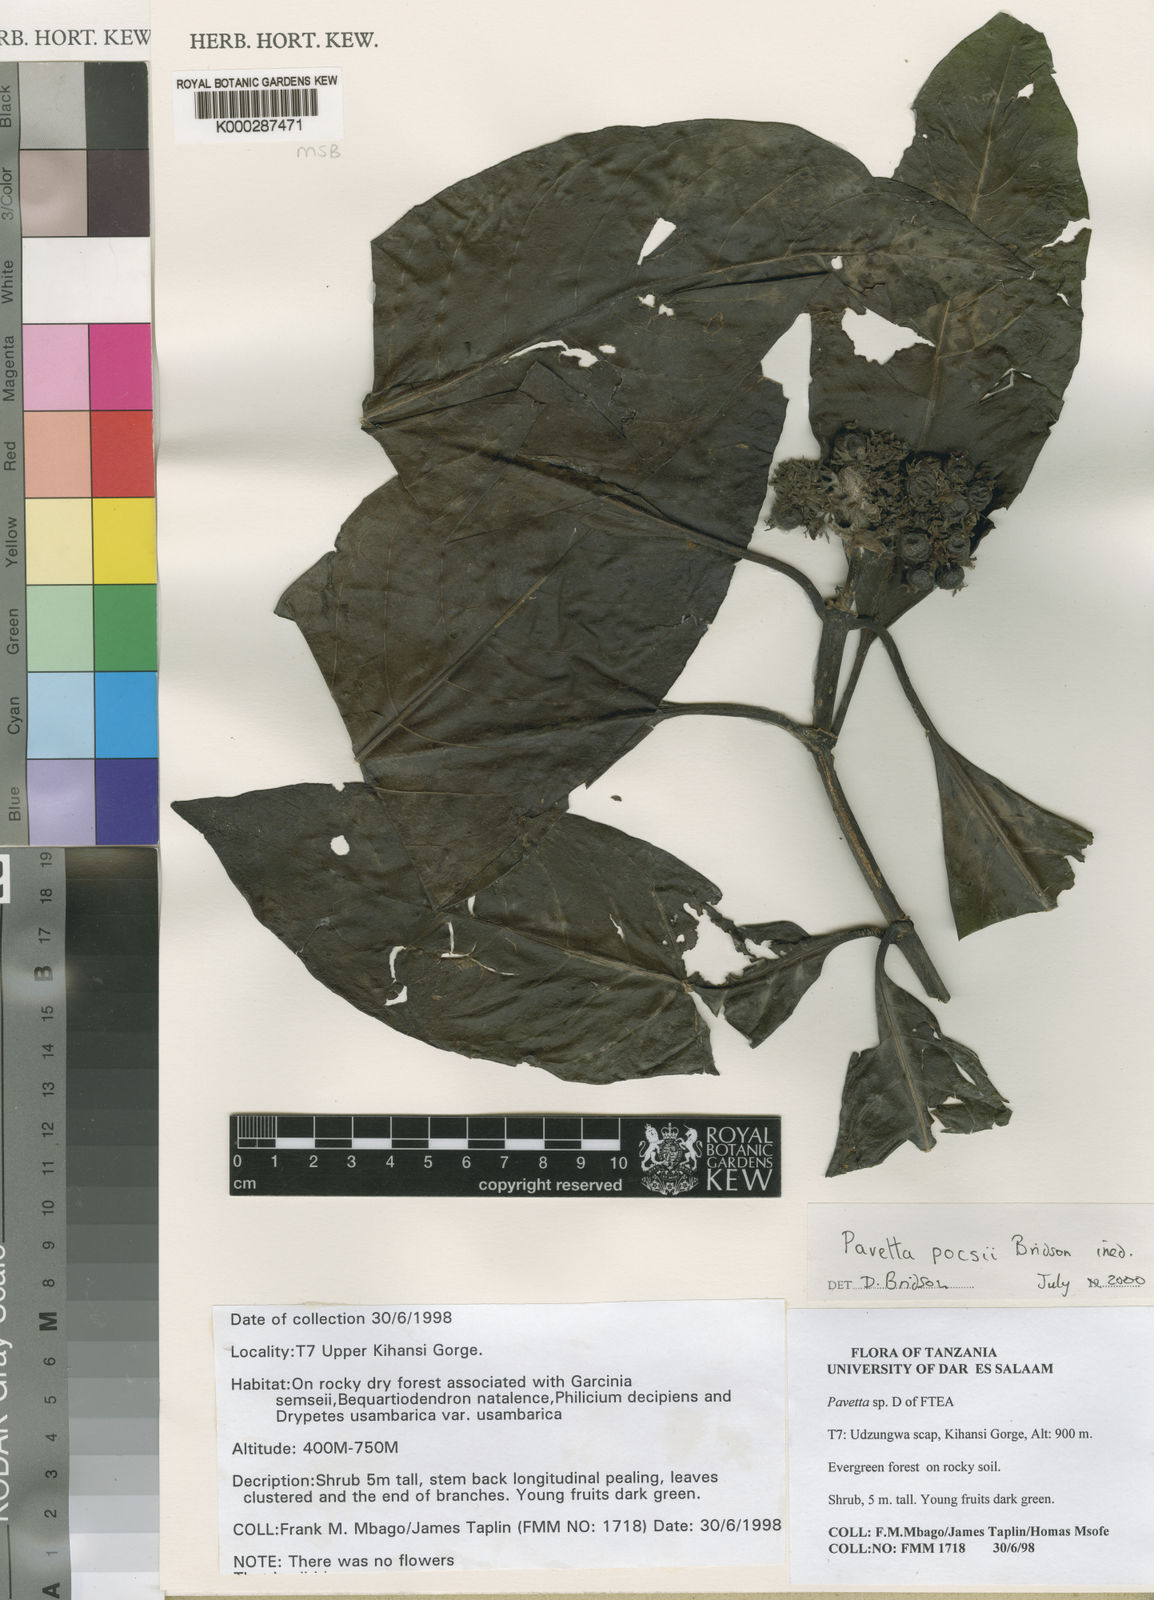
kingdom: Plantae
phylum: Tracheophyta
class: Magnoliopsida
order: Gentianales
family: Rubiaceae
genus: Pavetta
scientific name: Pavetta pocsii
